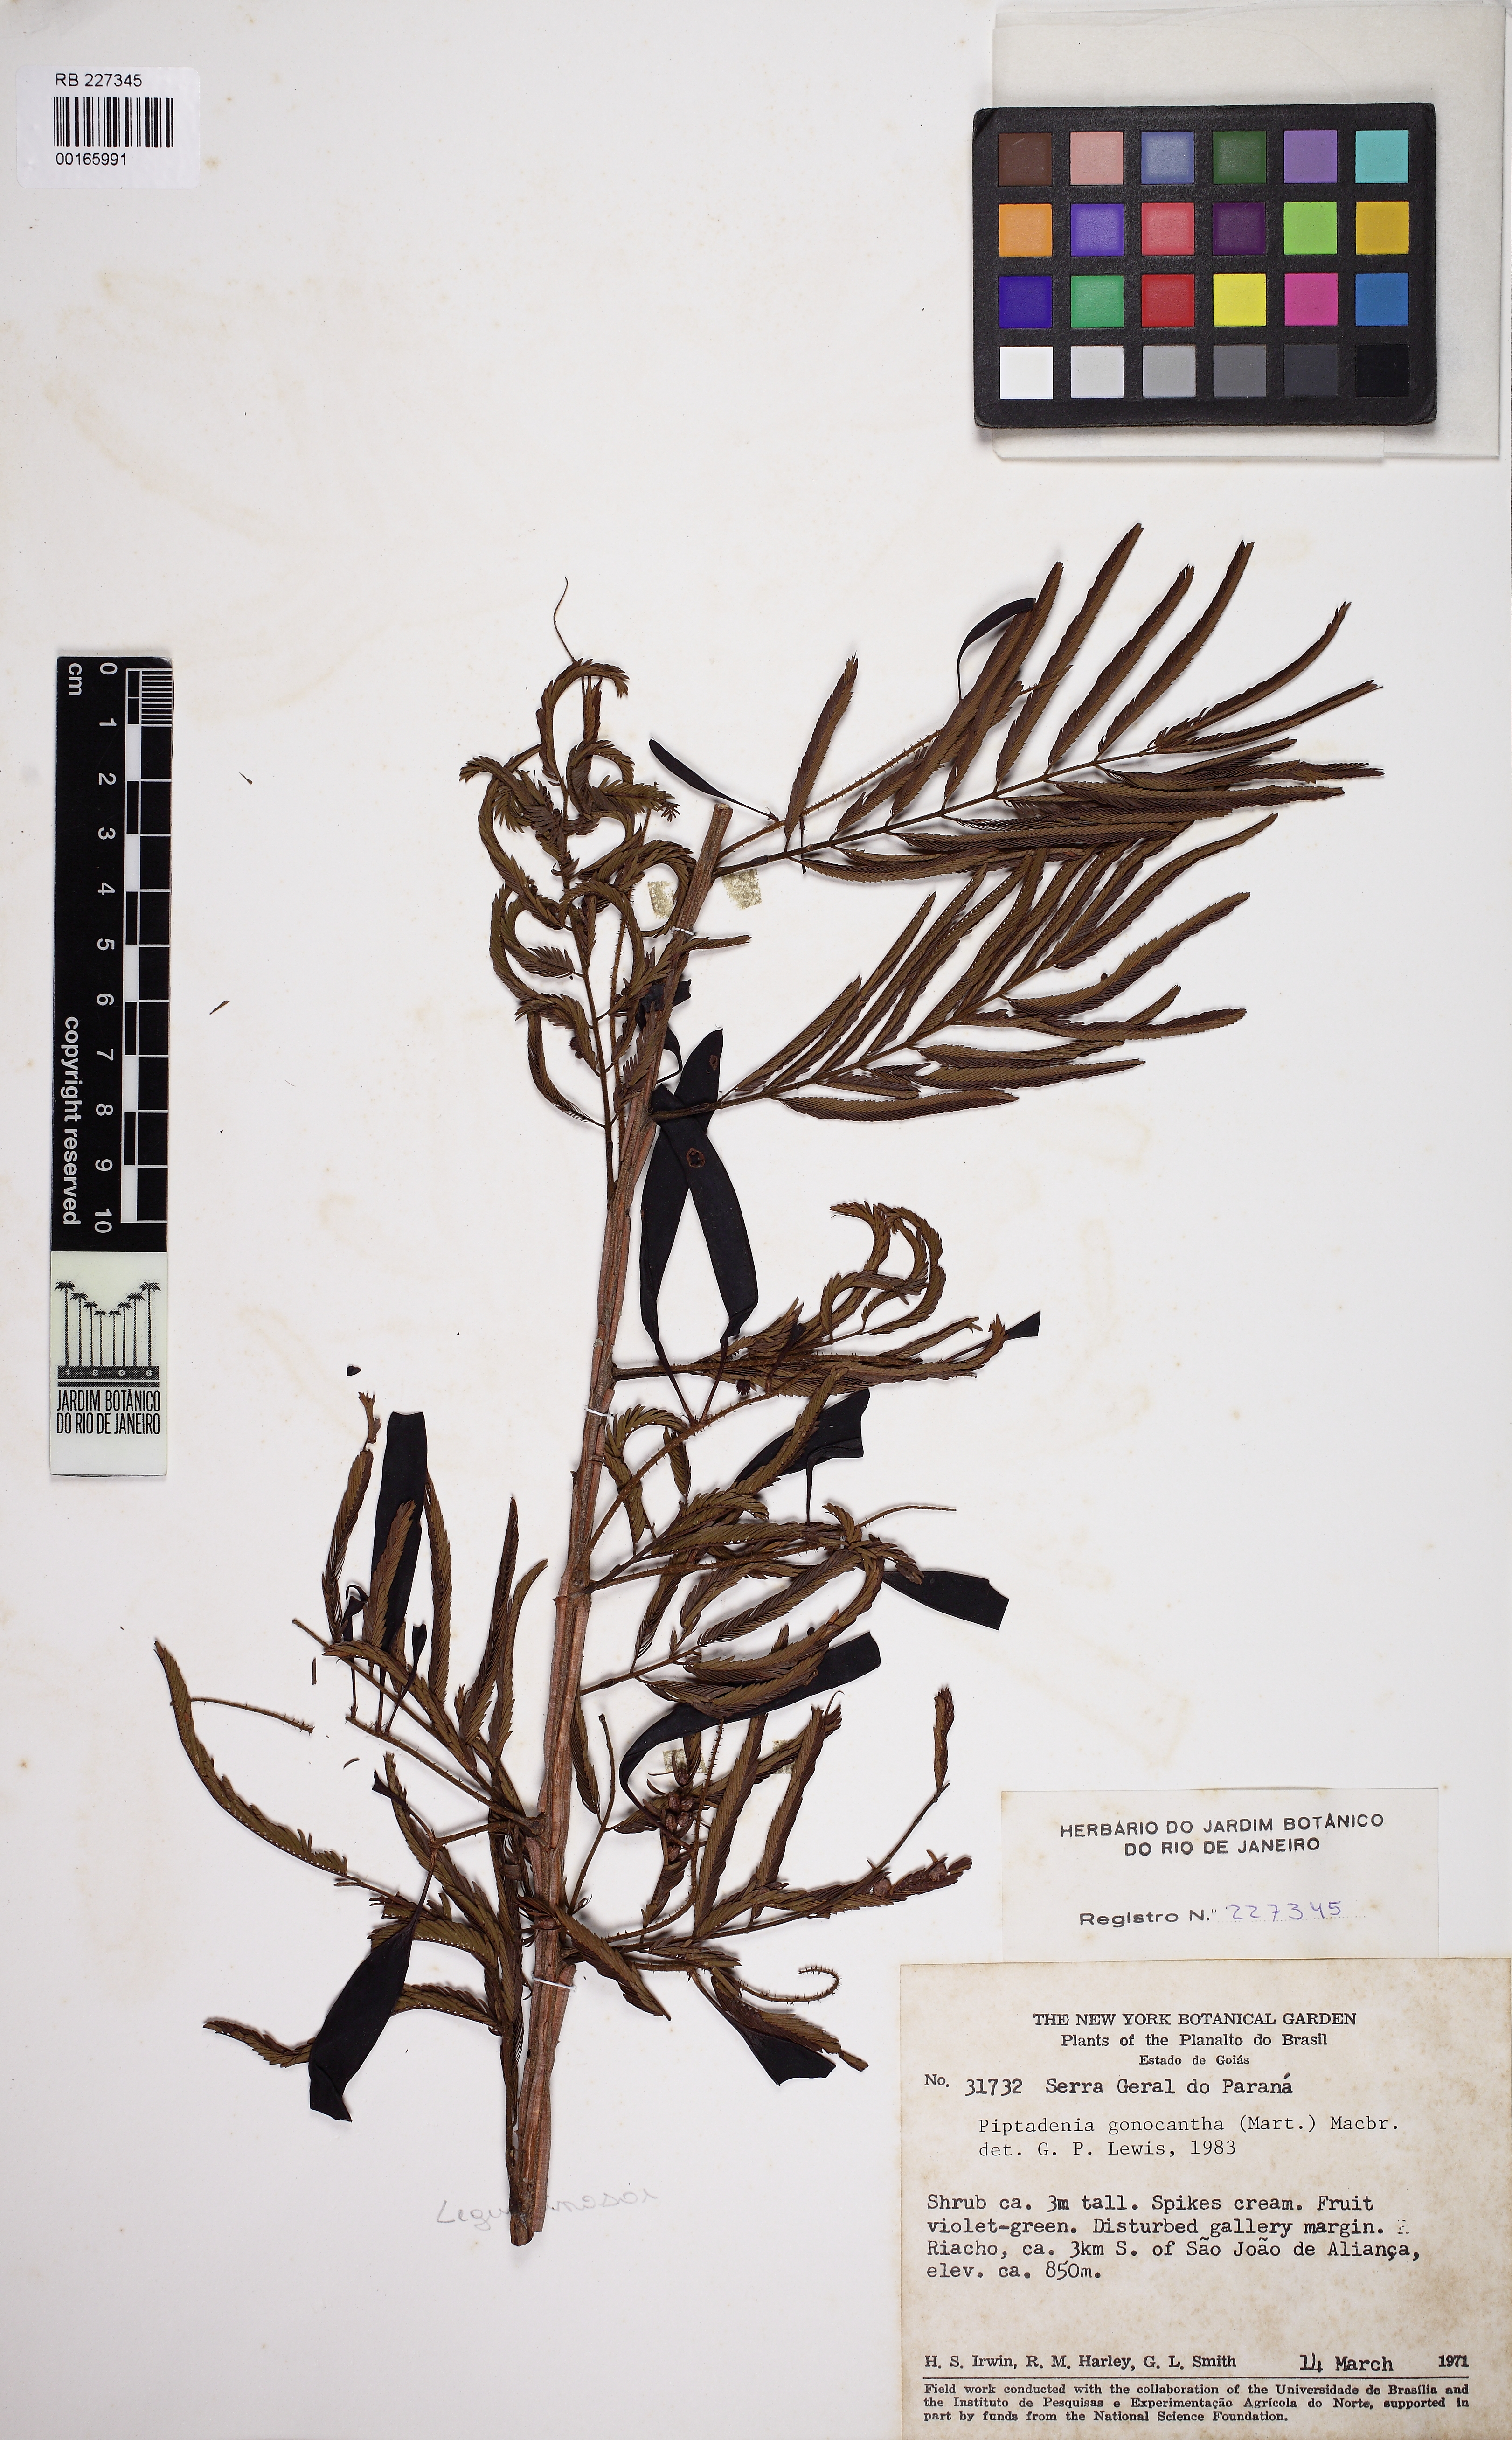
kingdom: Plantae
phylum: Tracheophyta
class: Magnoliopsida
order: Fabales
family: Fabaceae
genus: Piptadenia
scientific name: Piptadenia gonoacantha
